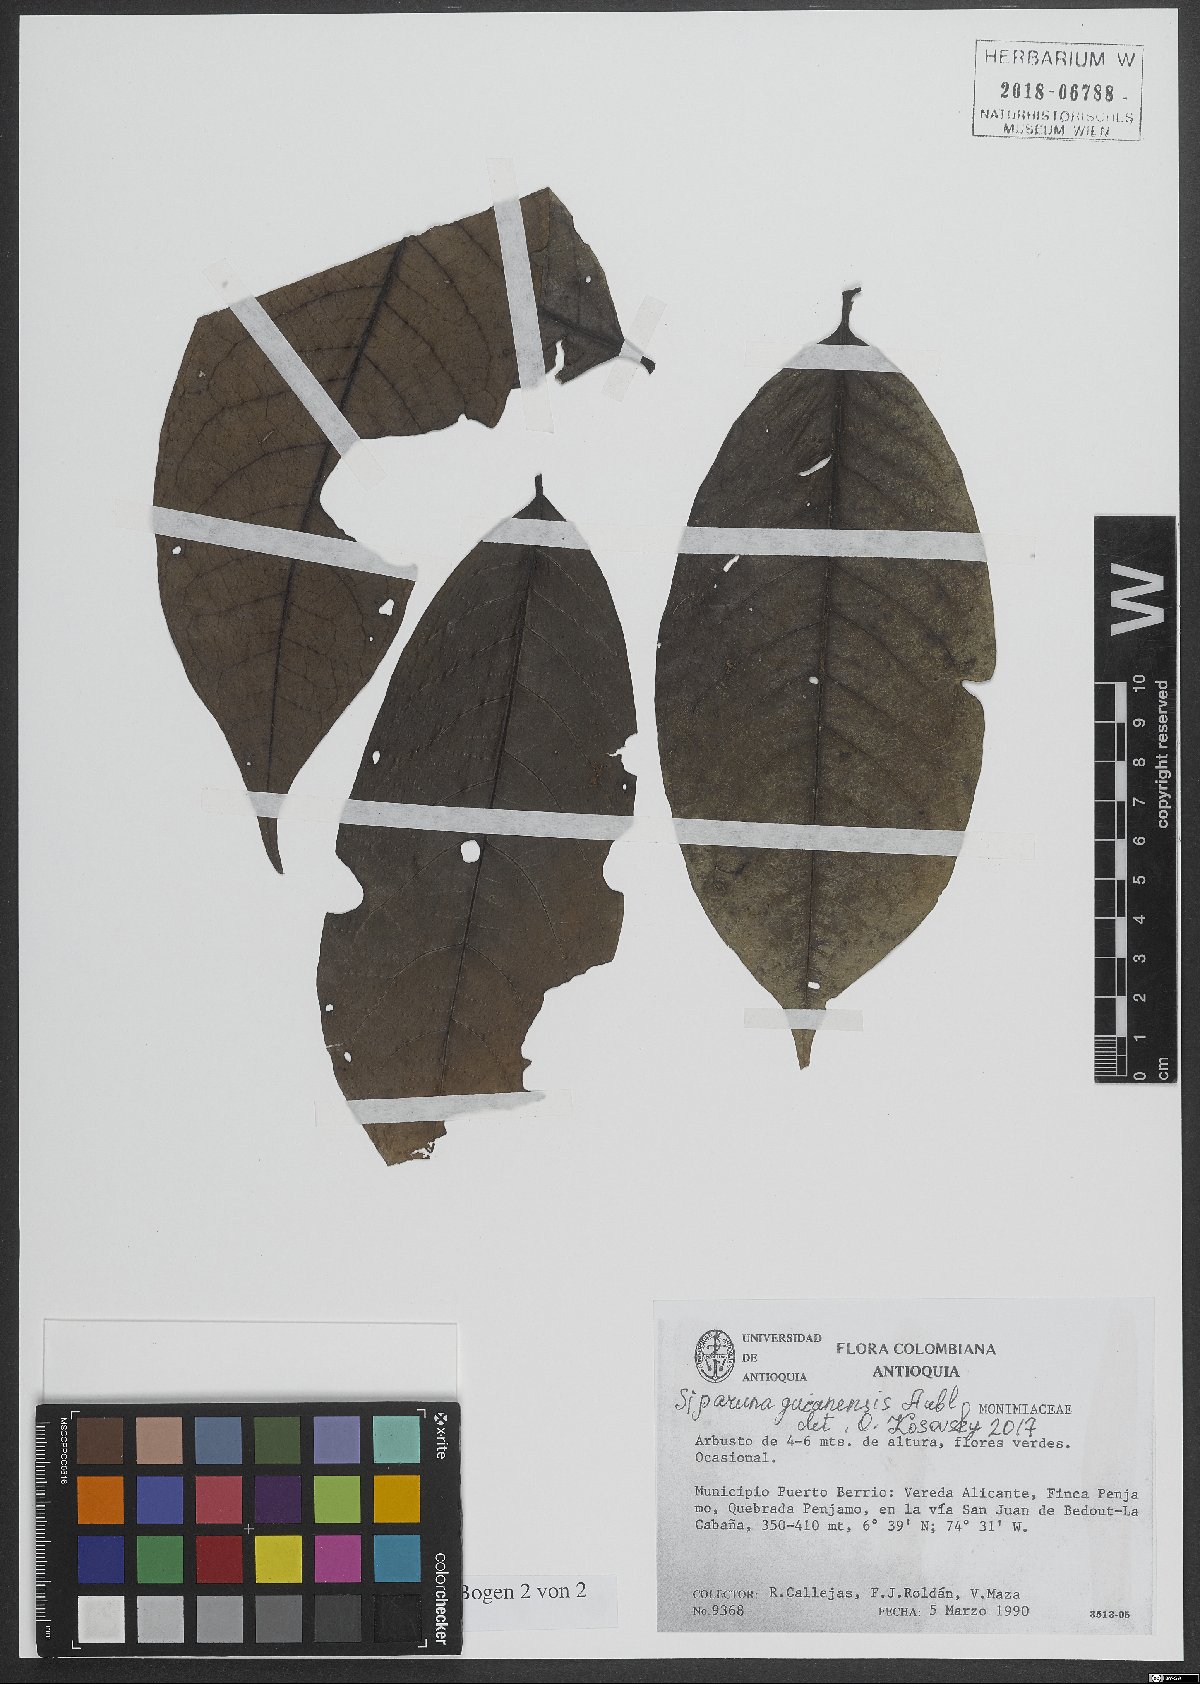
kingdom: Plantae
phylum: Tracheophyta
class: Magnoliopsida
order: Laurales
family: Siparunaceae
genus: Siparuna
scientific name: Siparuna guianensis
